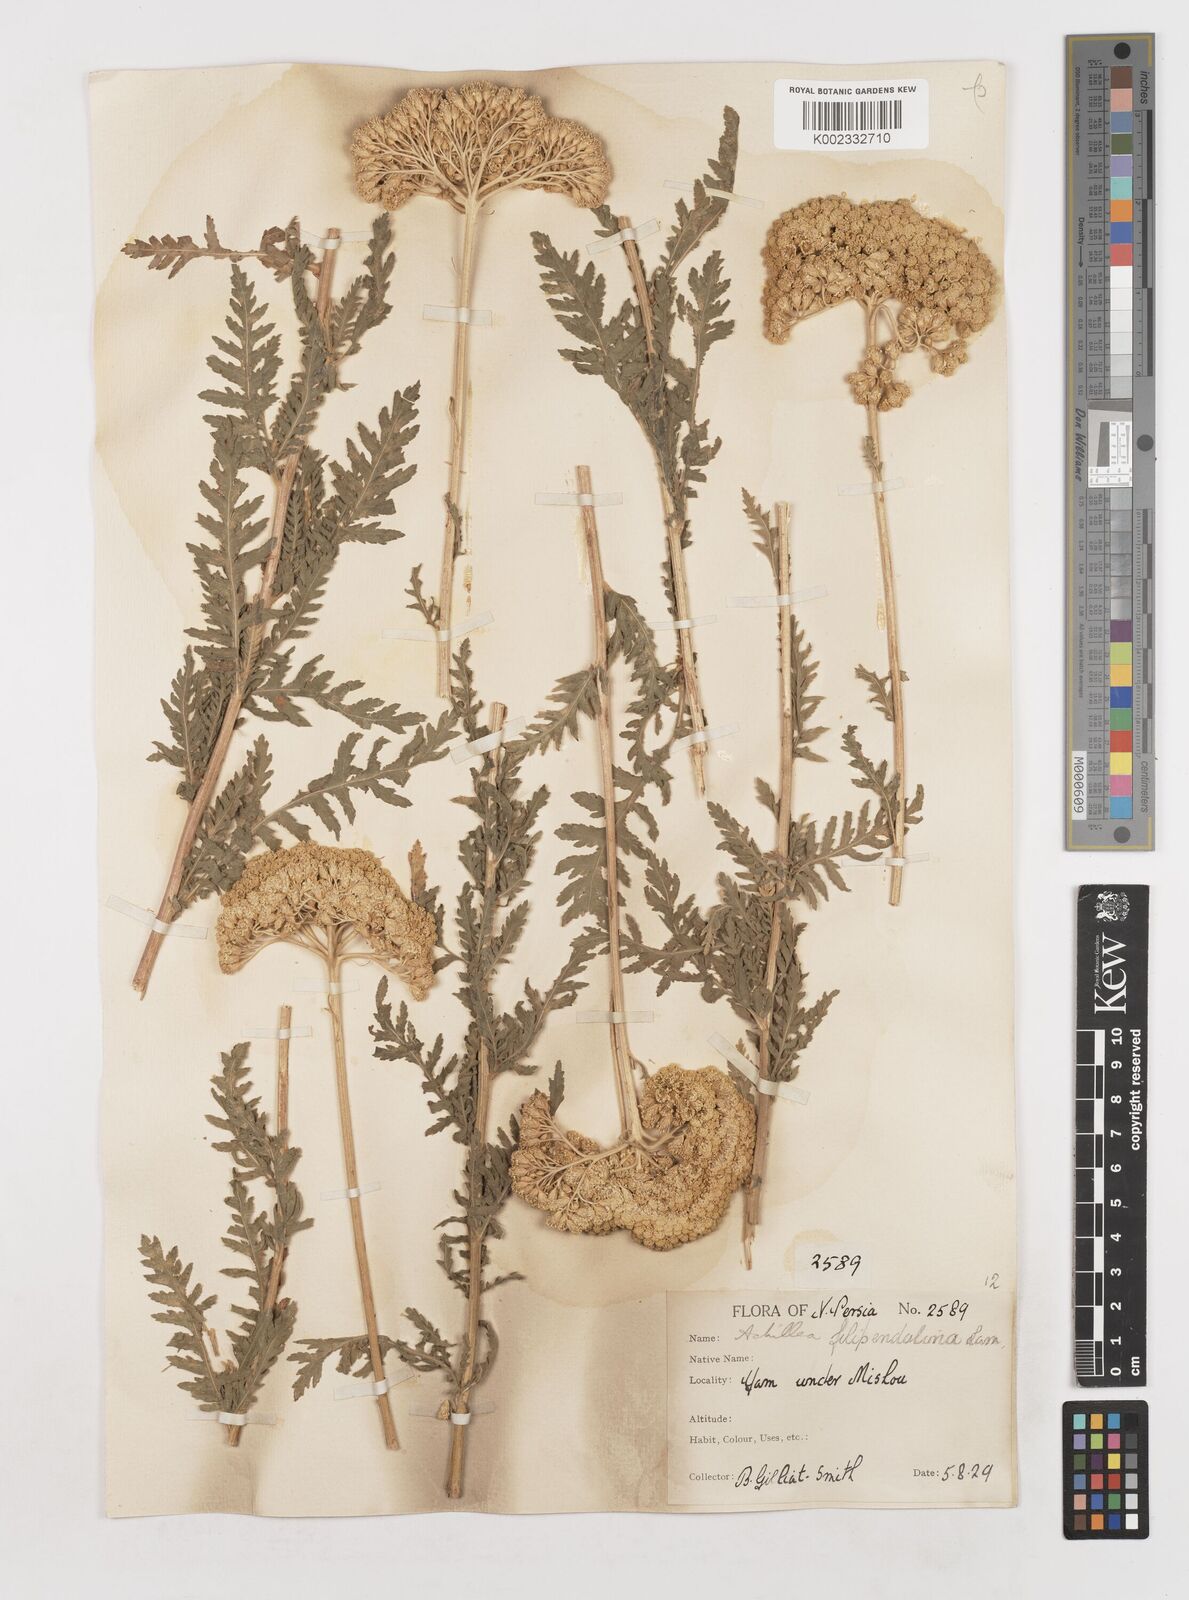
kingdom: Plantae
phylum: Tracheophyta
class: Magnoliopsida
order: Asterales
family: Asteraceae
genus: Achillea
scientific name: Achillea filipendulina
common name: Fernleaf yarrow
